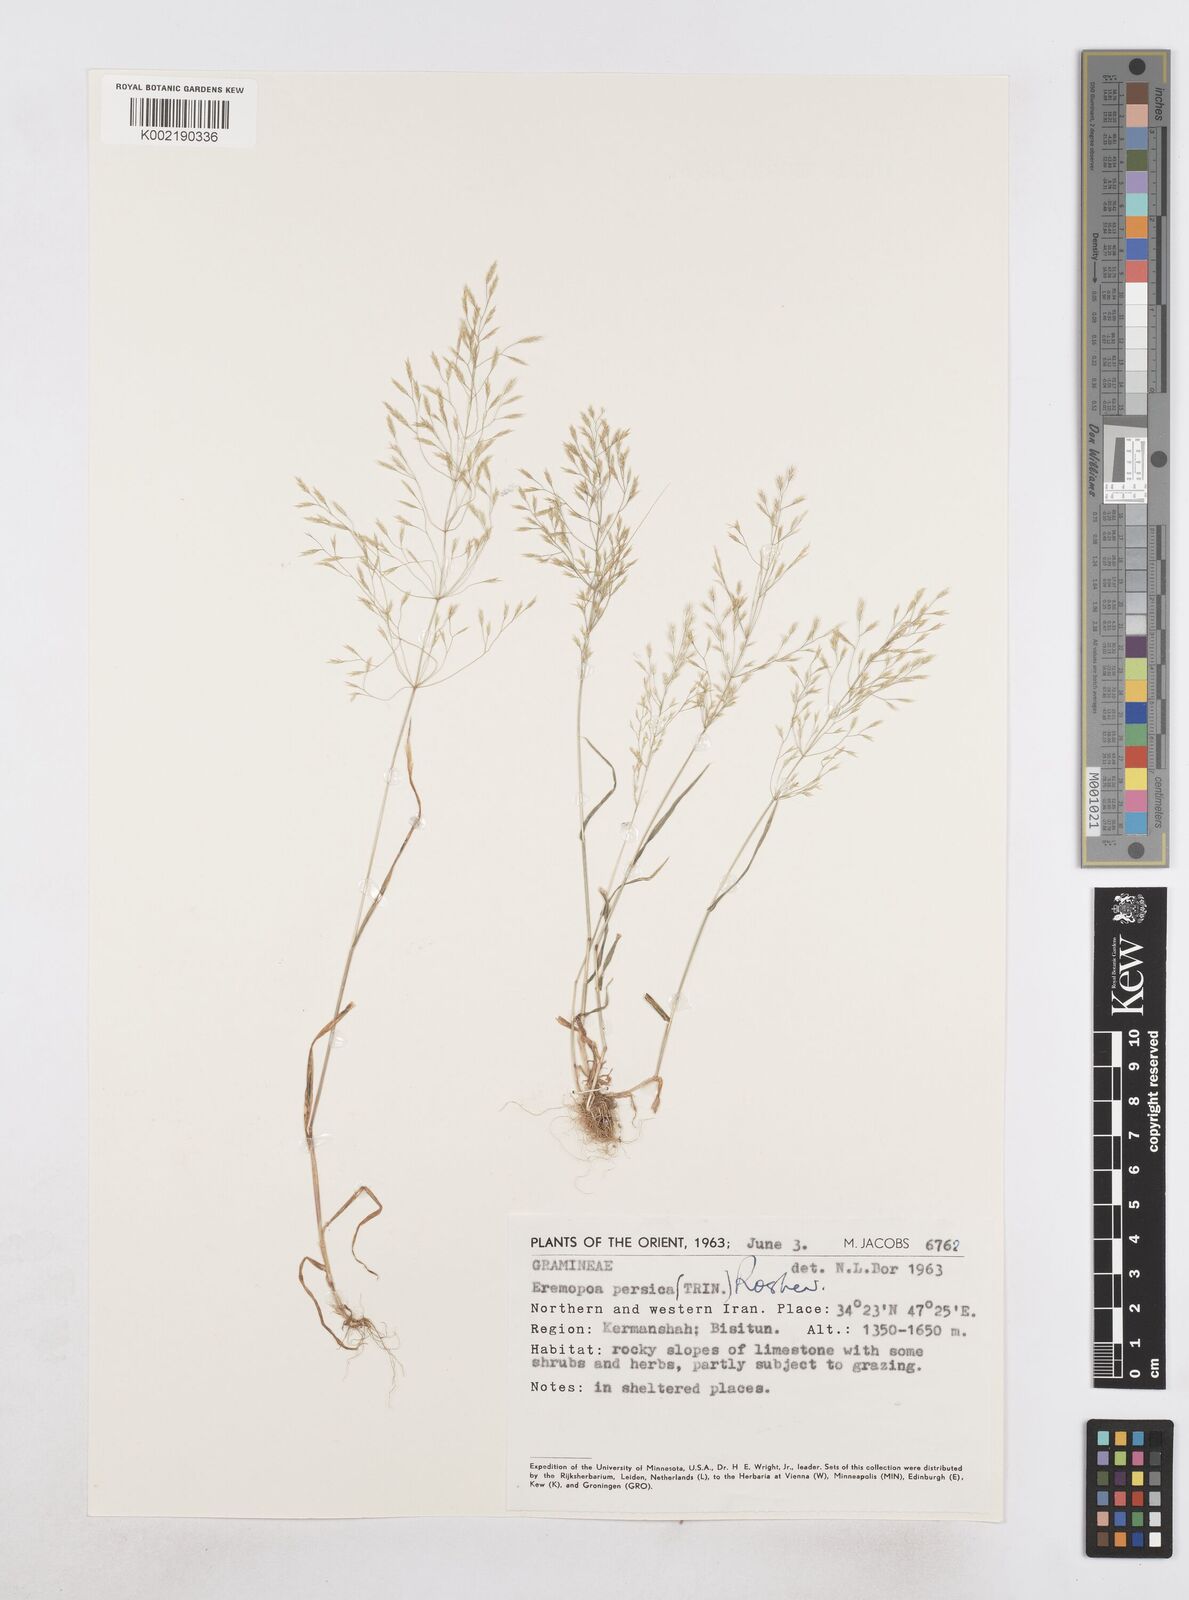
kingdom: Plantae
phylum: Tracheophyta
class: Liliopsida
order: Poales
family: Poaceae
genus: Poa
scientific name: Poa persica
